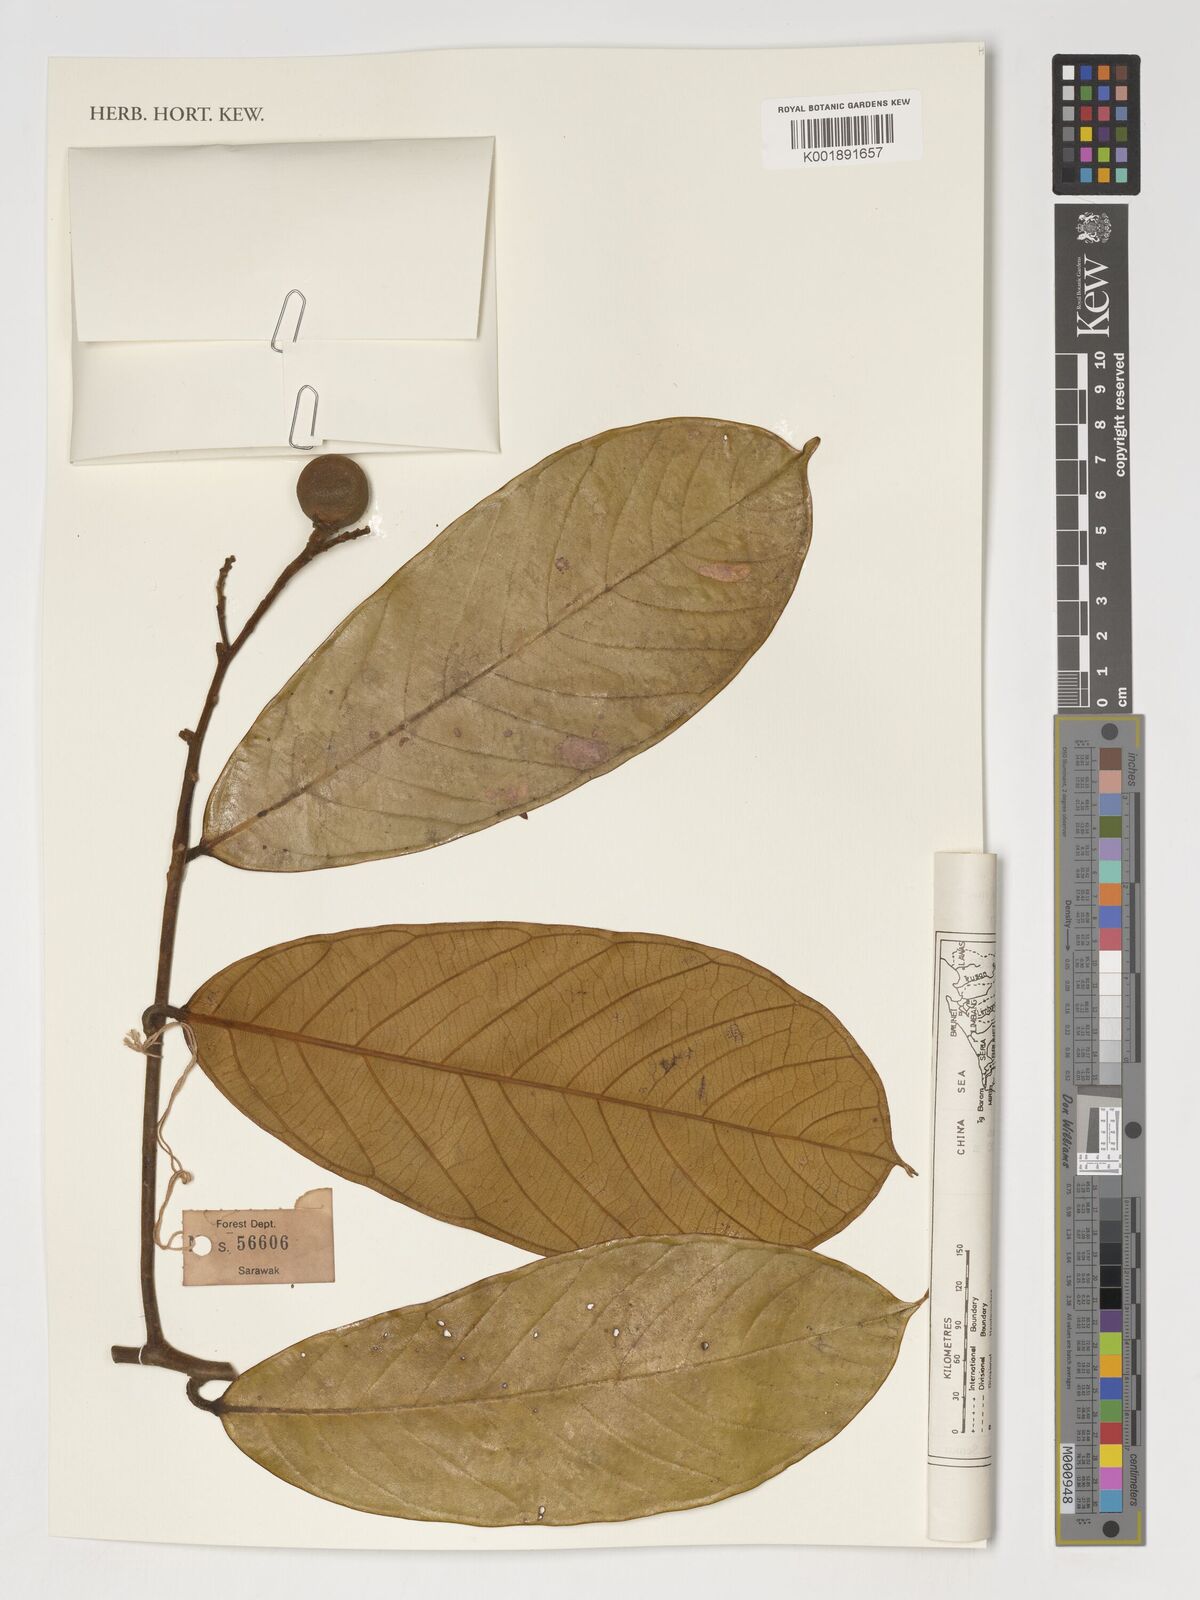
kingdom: Plantae
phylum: Tracheophyta
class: Magnoliopsida
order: Fabales
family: Polygalaceae
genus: Xanthophyllum
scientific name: Xanthophyllum
